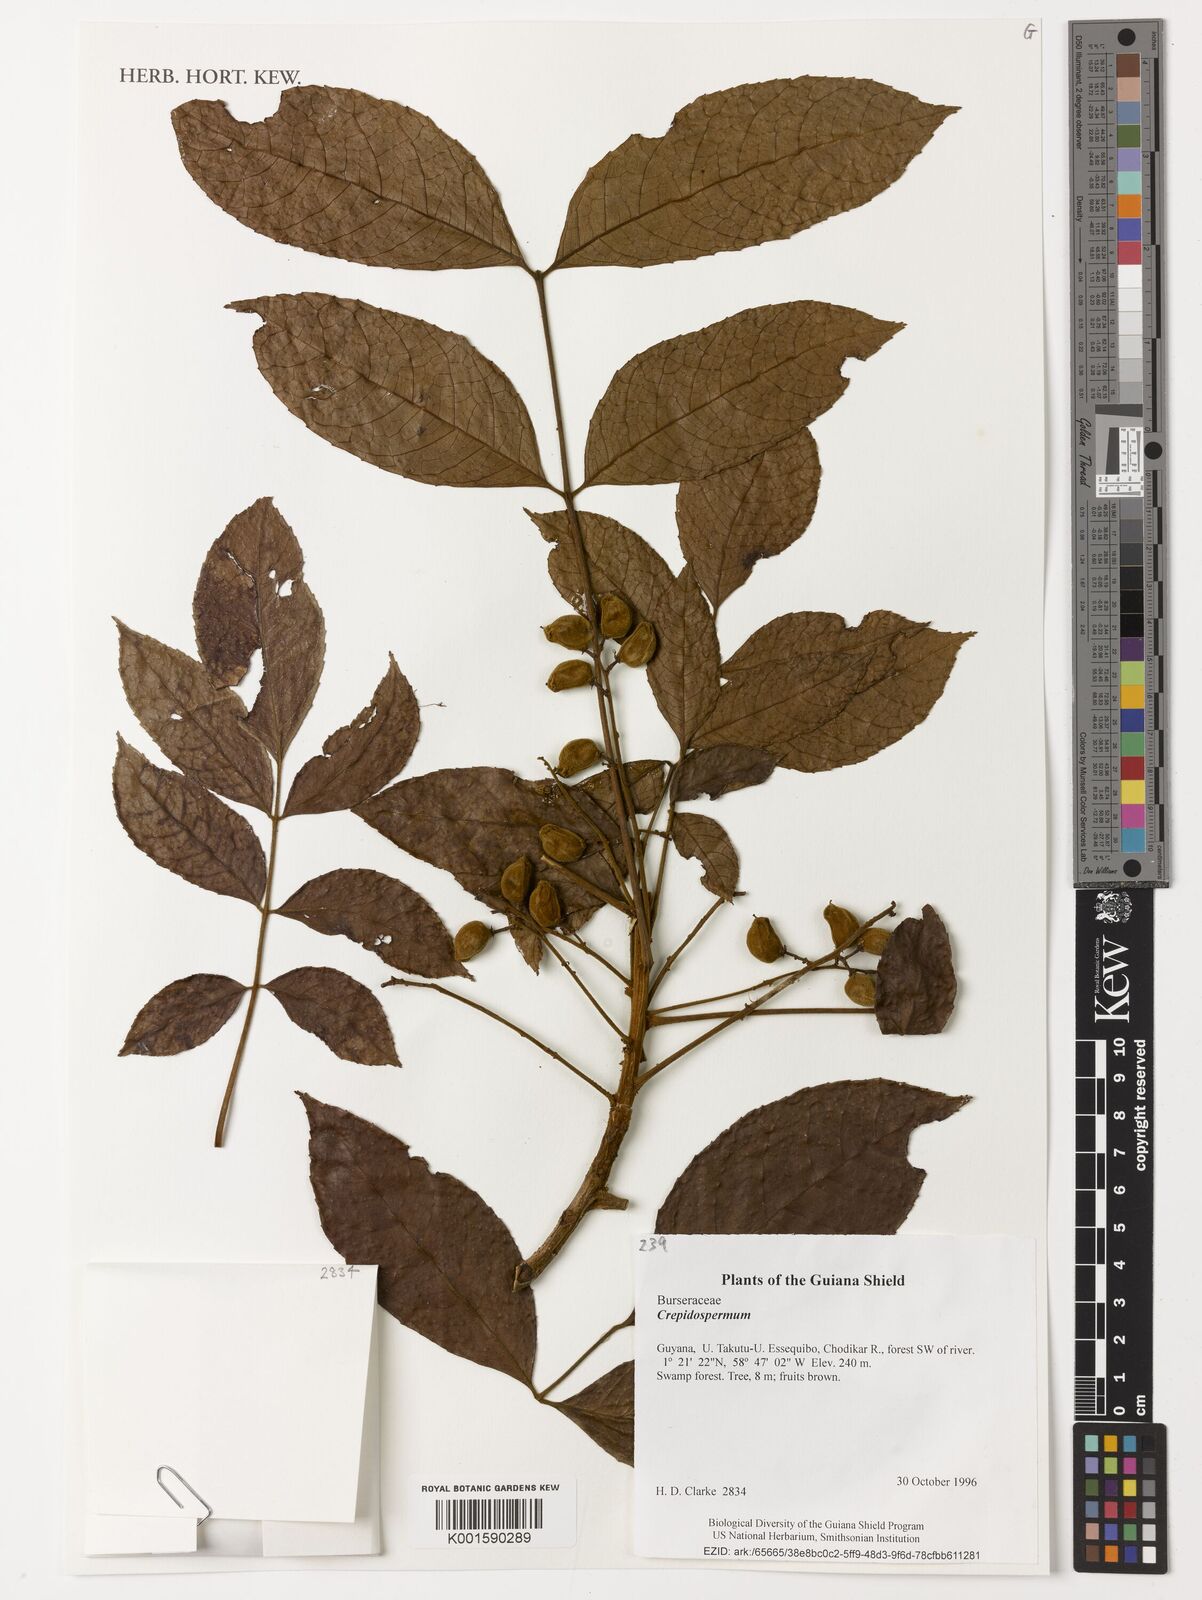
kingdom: Plantae
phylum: Tracheophyta
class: Magnoliopsida
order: Sapindales
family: Burseraceae
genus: Crepidospermum
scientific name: Crepidospermum
